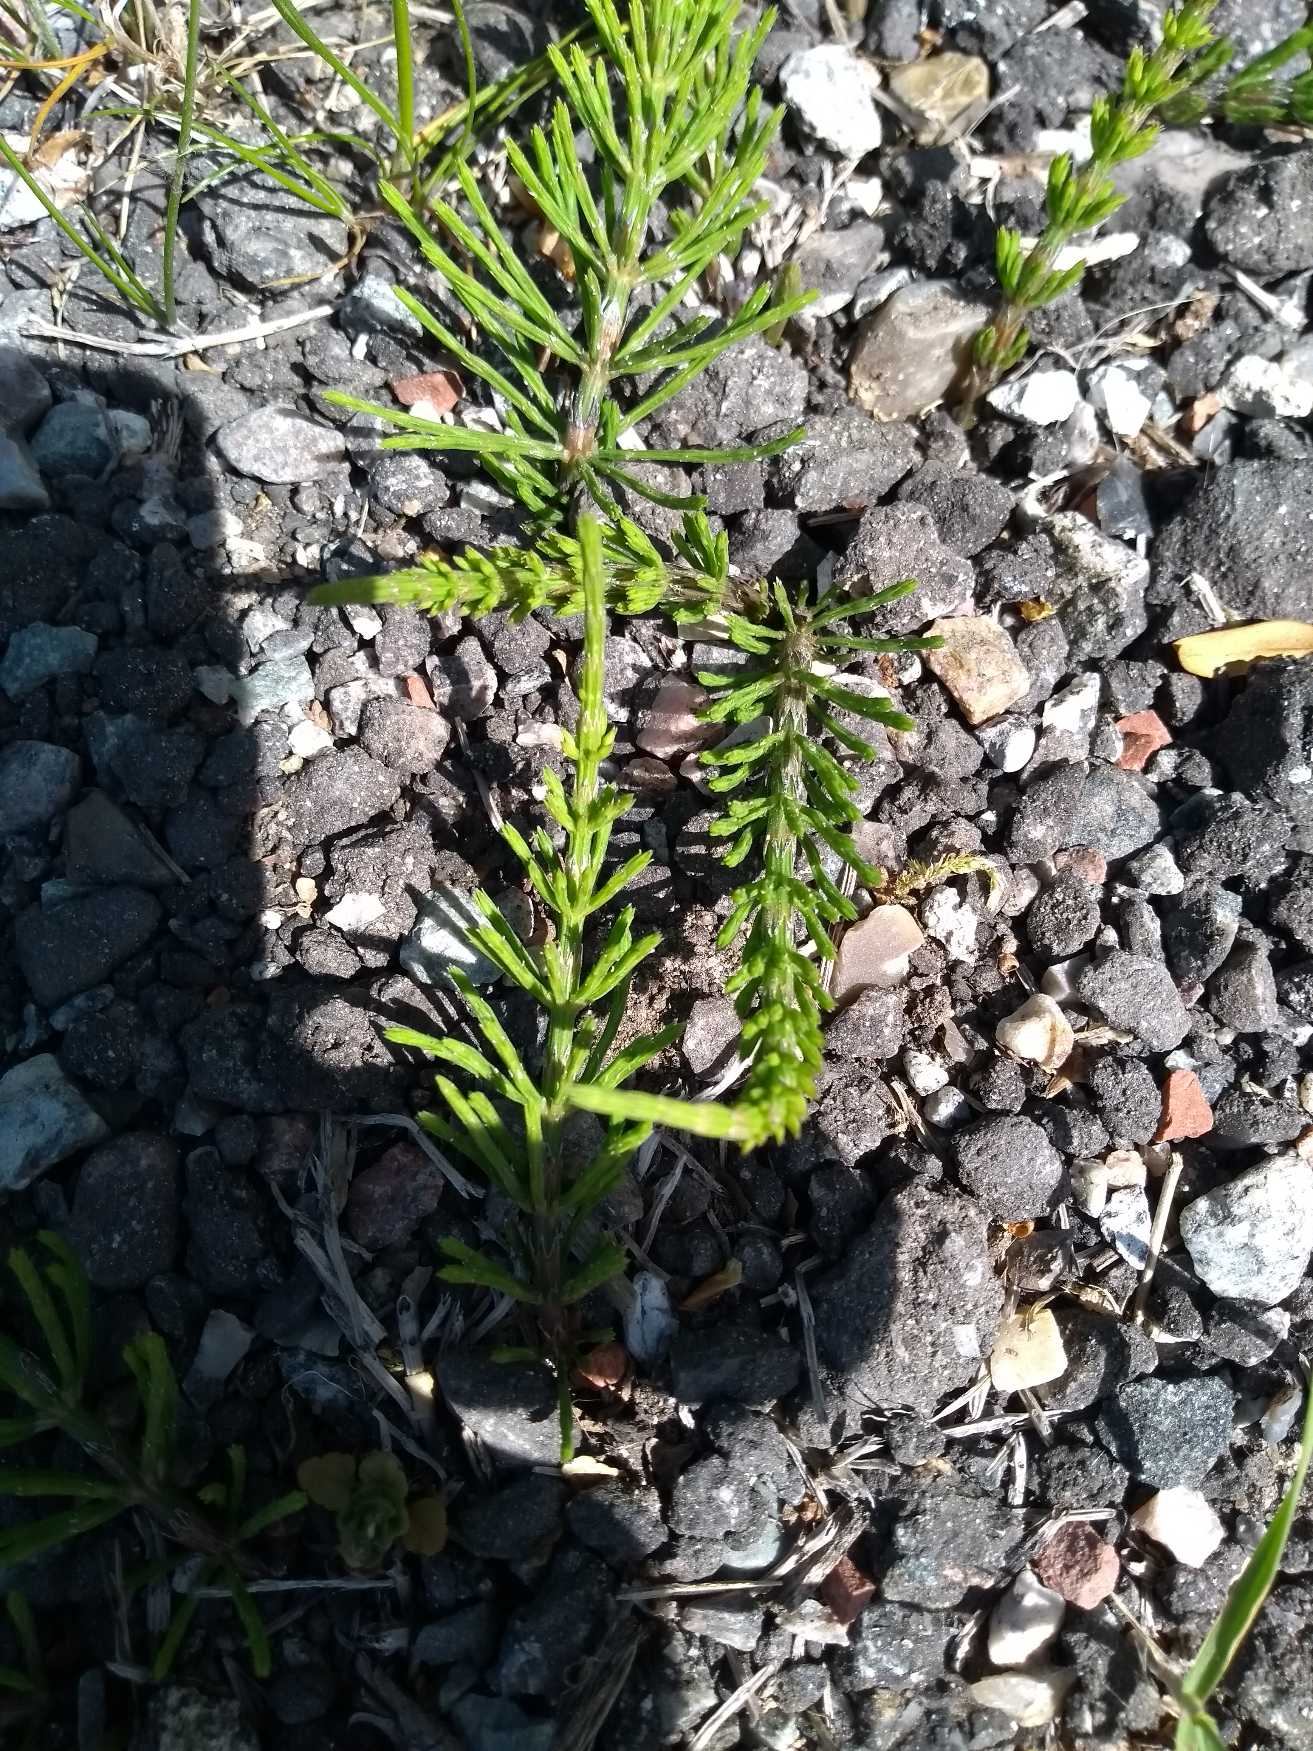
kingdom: Plantae
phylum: Tracheophyta
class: Polypodiopsida
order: Equisetales
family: Equisetaceae
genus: Equisetum
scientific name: Equisetum arvense
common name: Ager-padderok
